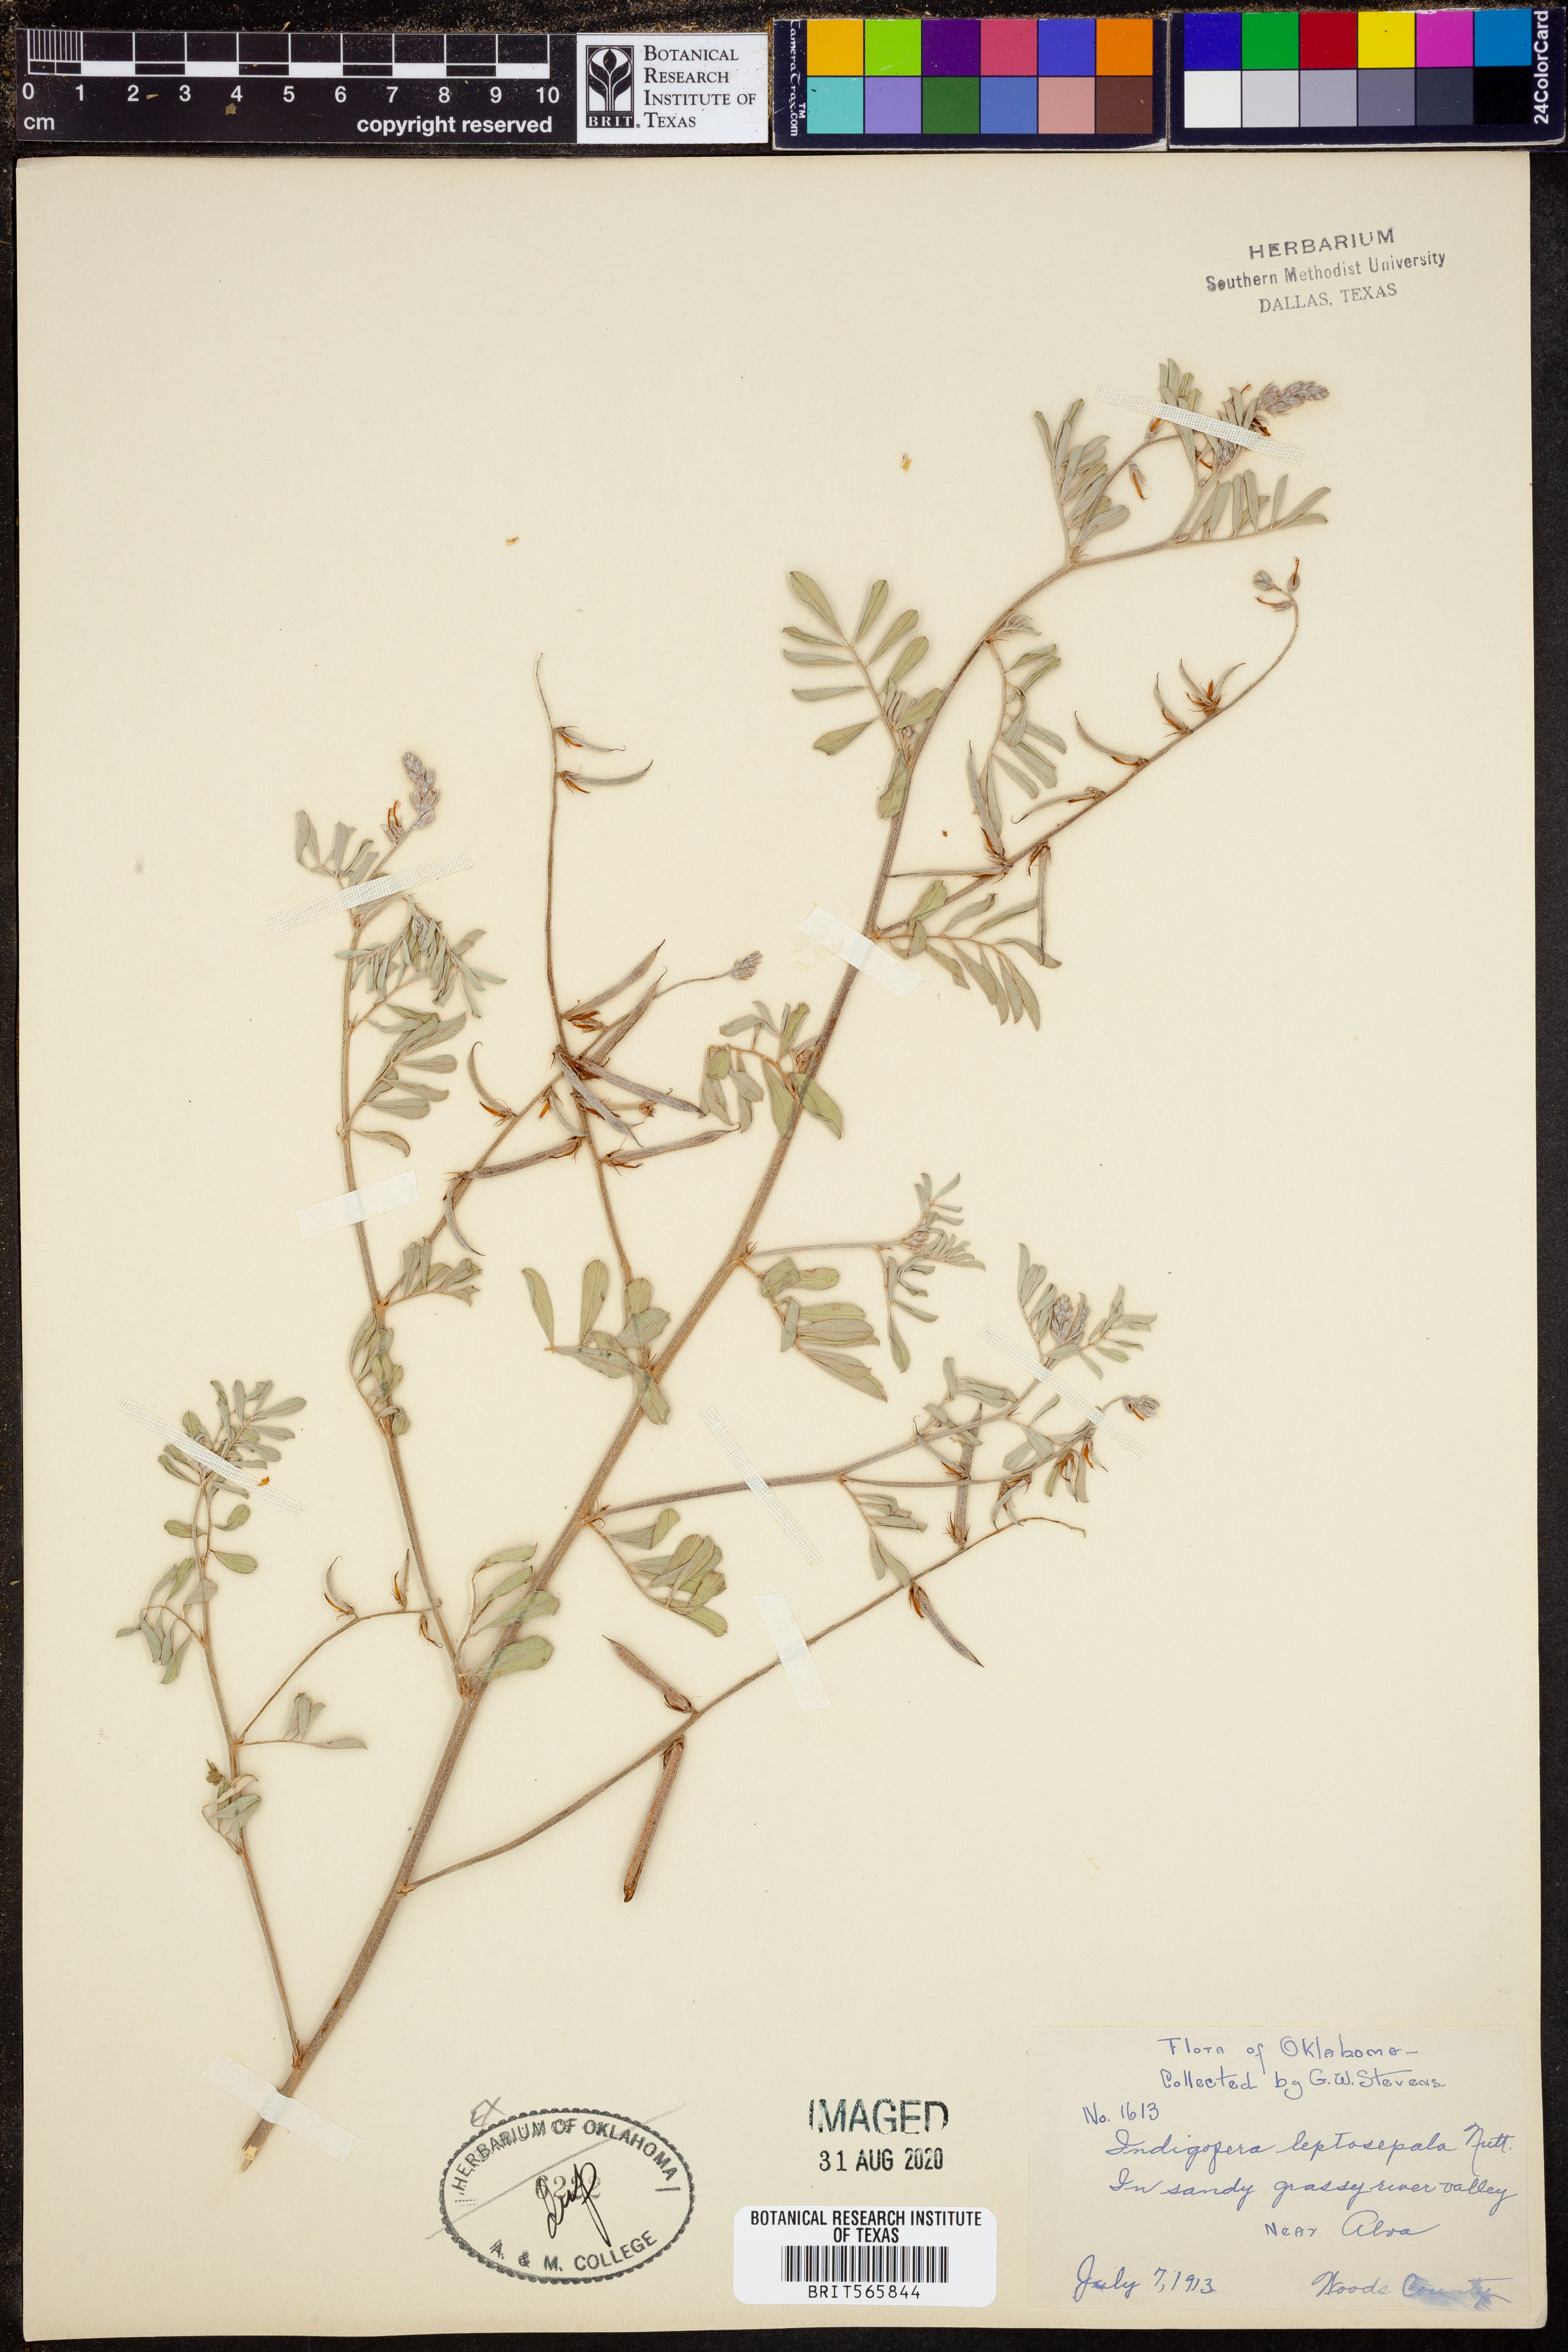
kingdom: Plantae
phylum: Tracheophyta
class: Magnoliopsida
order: Fabales
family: Fabaceae
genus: Indigofera
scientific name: Indigofera argutidens
